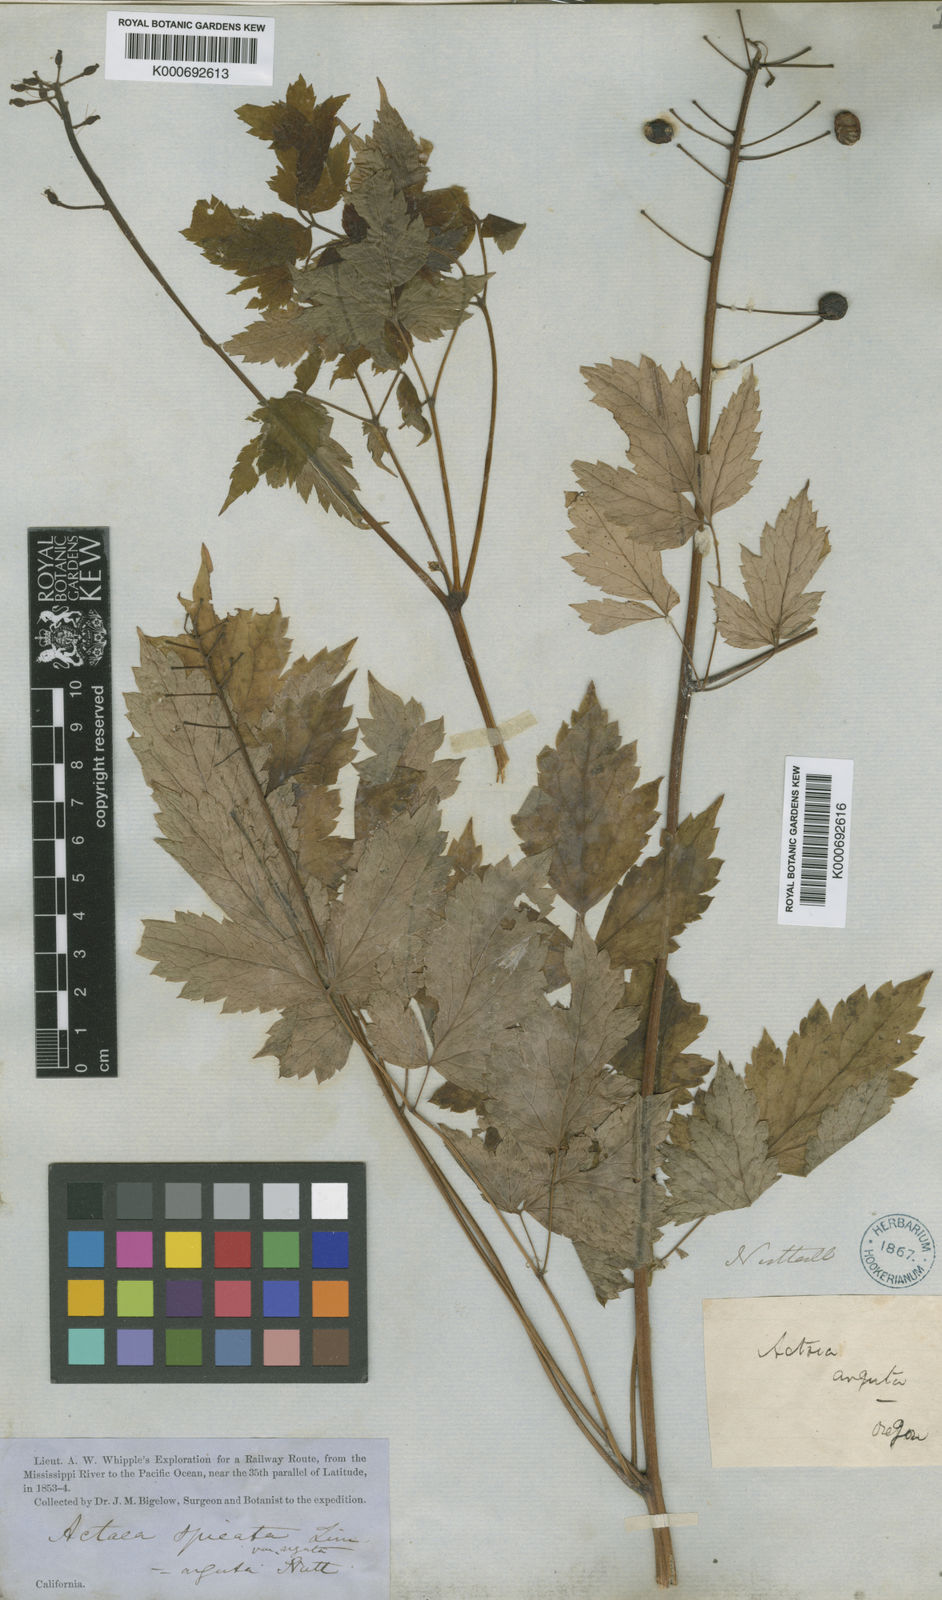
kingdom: Plantae
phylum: Tracheophyta
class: Magnoliopsida
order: Ranunculales
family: Ranunculaceae
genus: Actaea
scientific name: Actaea rubra
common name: Red baneberry
